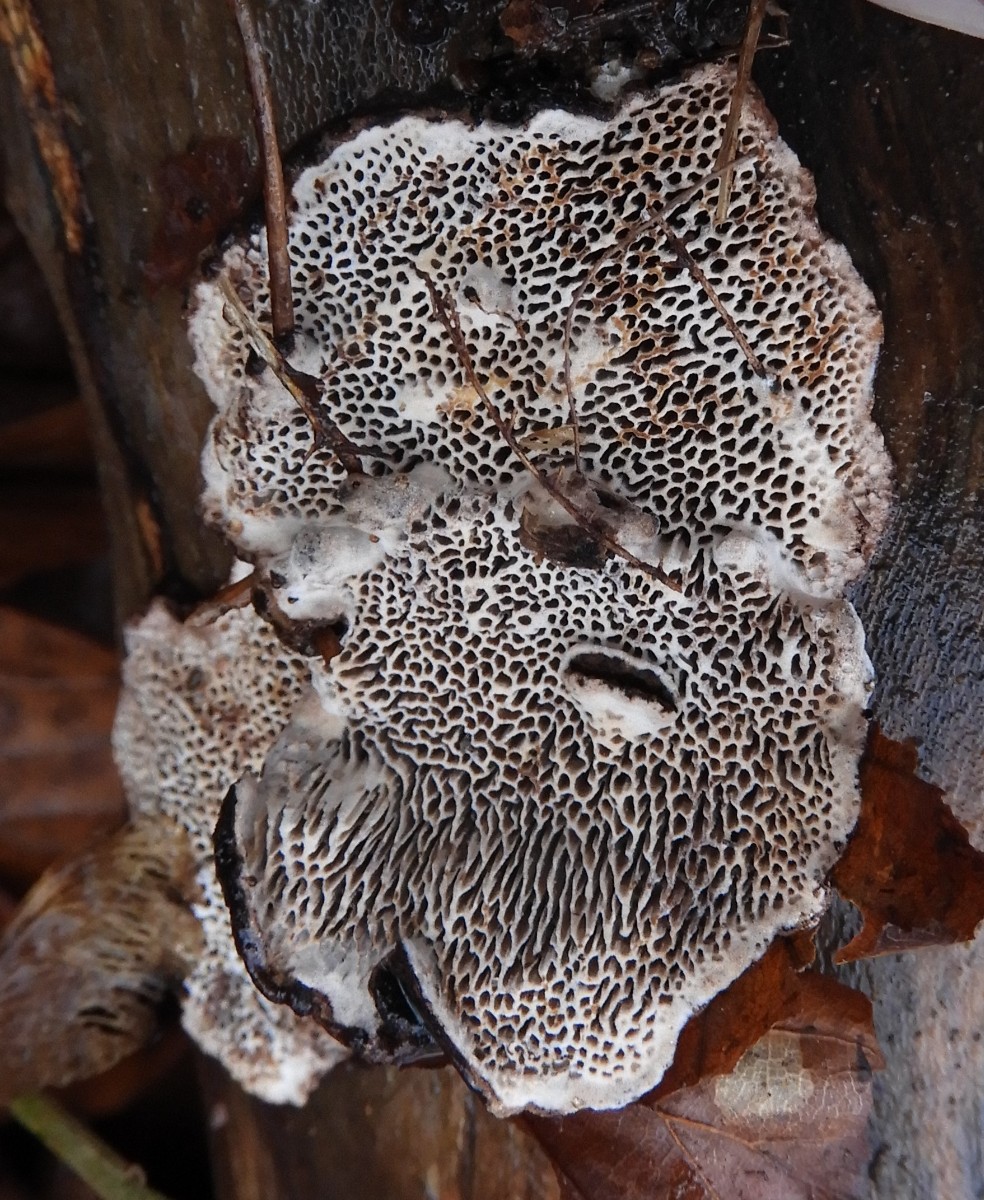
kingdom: Fungi
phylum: Basidiomycota
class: Agaricomycetes
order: Polyporales
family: Polyporaceae
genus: Podofomes
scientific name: Podofomes mollis
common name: blød begporesvamp
